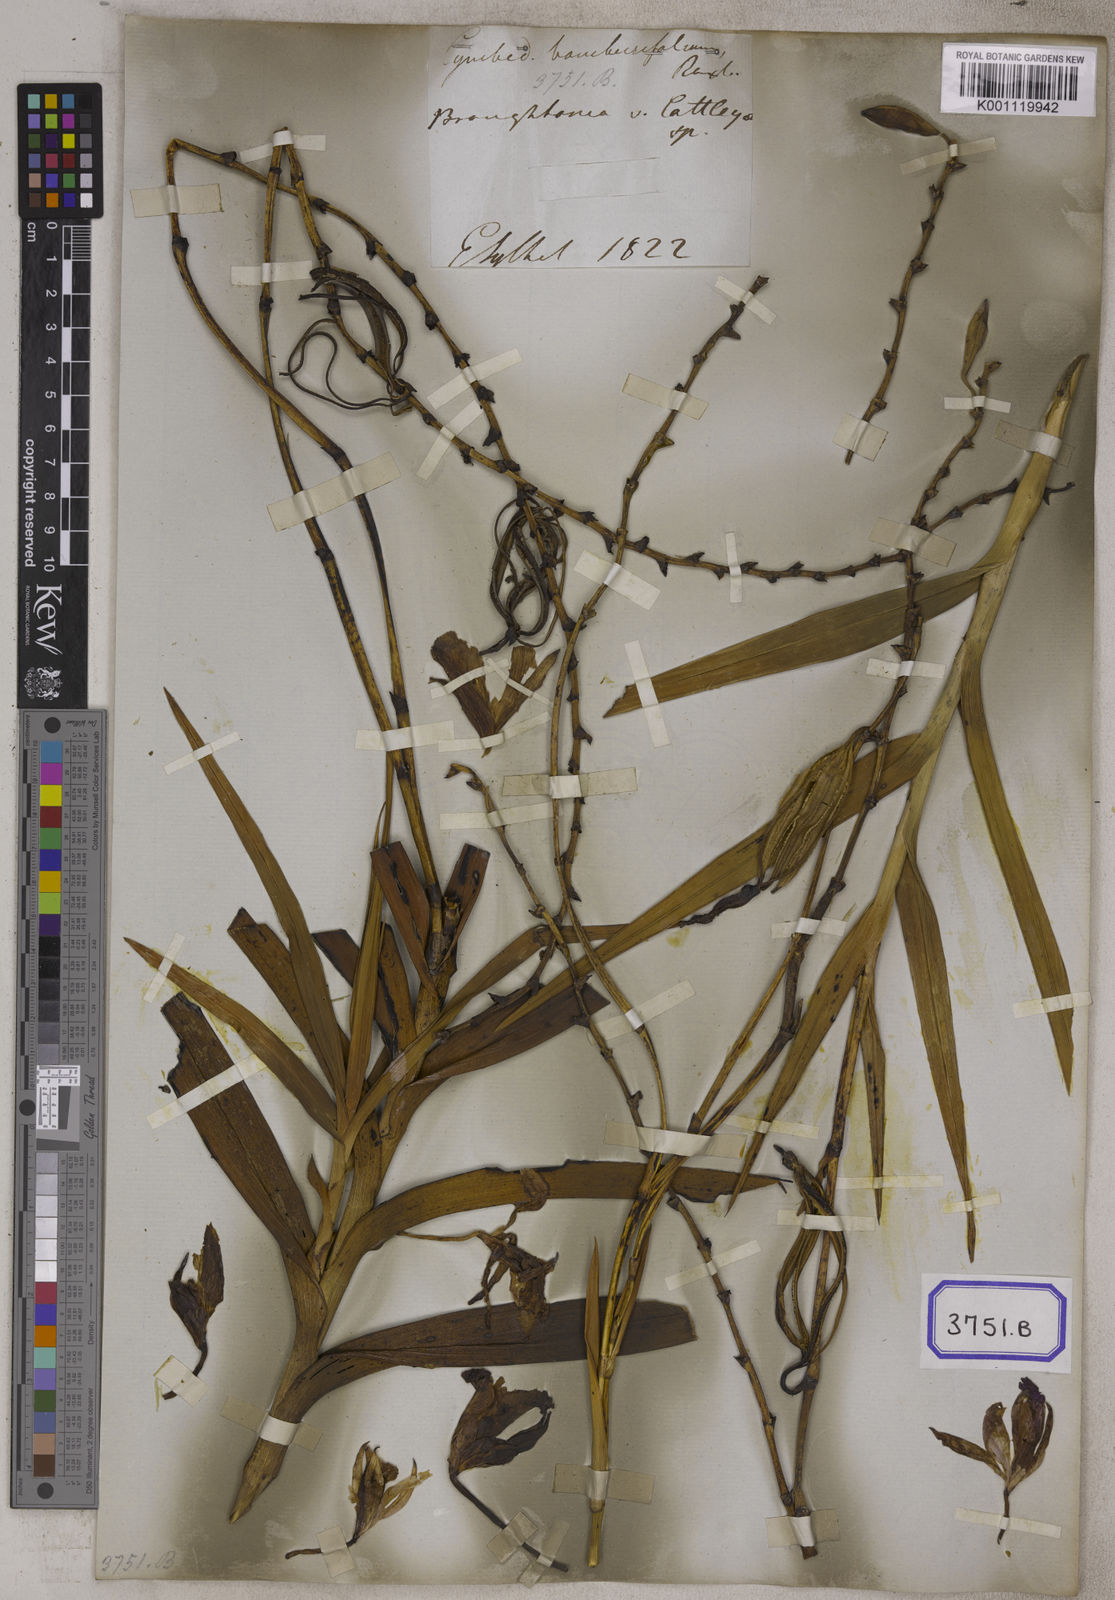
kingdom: Plantae
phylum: Tracheophyta
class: Liliopsida
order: Asparagales
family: Orchidaceae
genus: Arundina
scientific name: Arundina graminifolia
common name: Bamboo orchid
